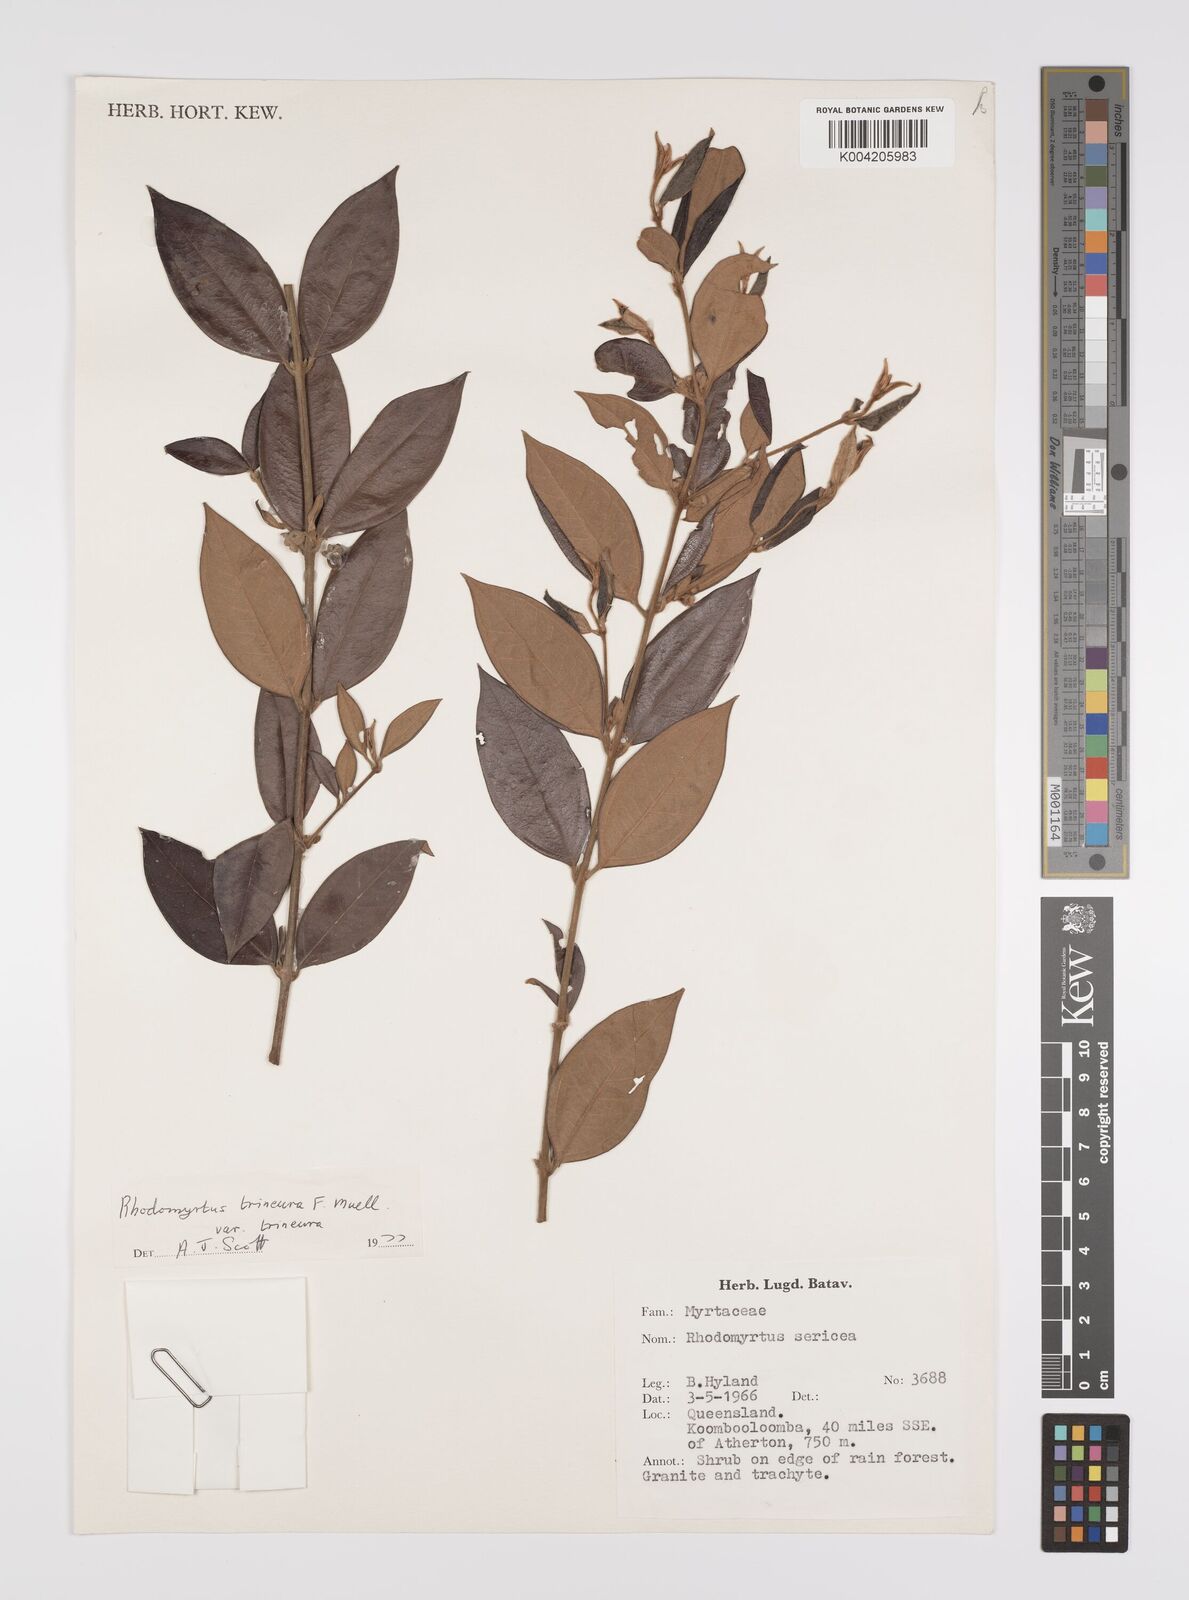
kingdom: Plantae
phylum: Tracheophyta
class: Magnoliopsida
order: Myrtales
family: Myrtaceae
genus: Rhodomyrtus
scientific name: Rhodomyrtus sericea
